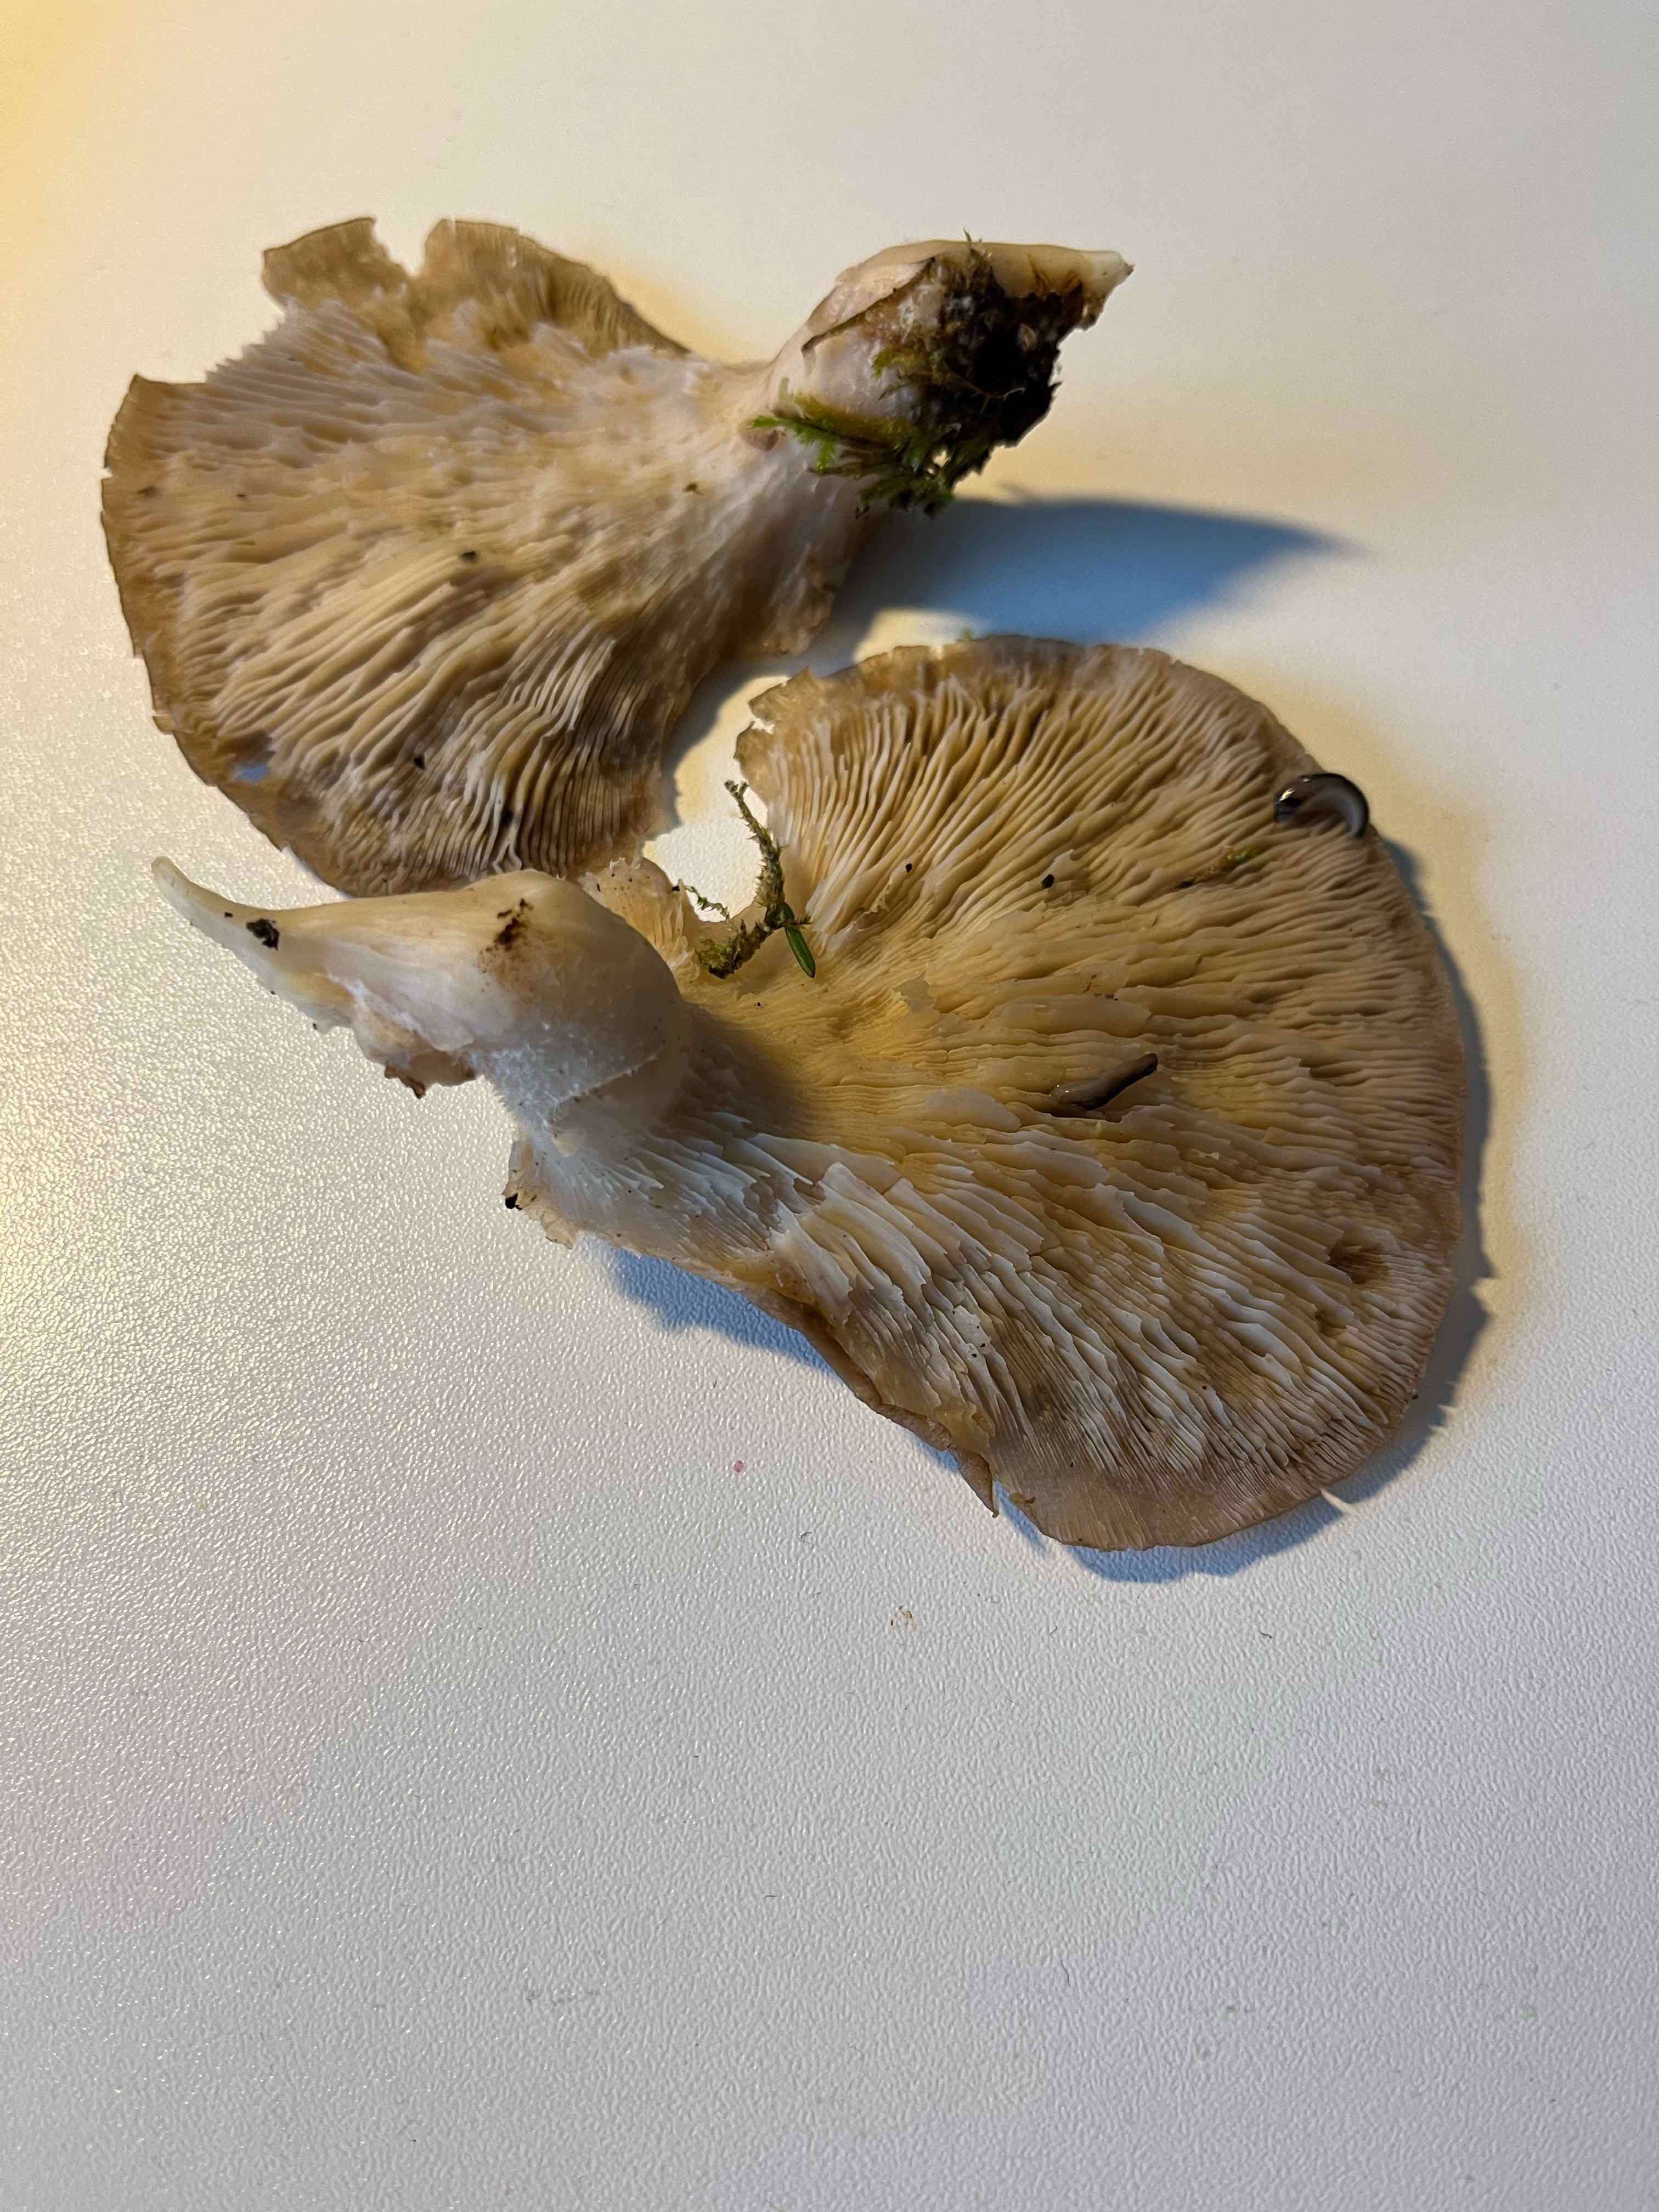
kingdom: Fungi
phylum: Basidiomycota
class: Agaricomycetes
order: Agaricales
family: Pleurotaceae
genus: Pleurotus
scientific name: Pleurotus ostreatus
